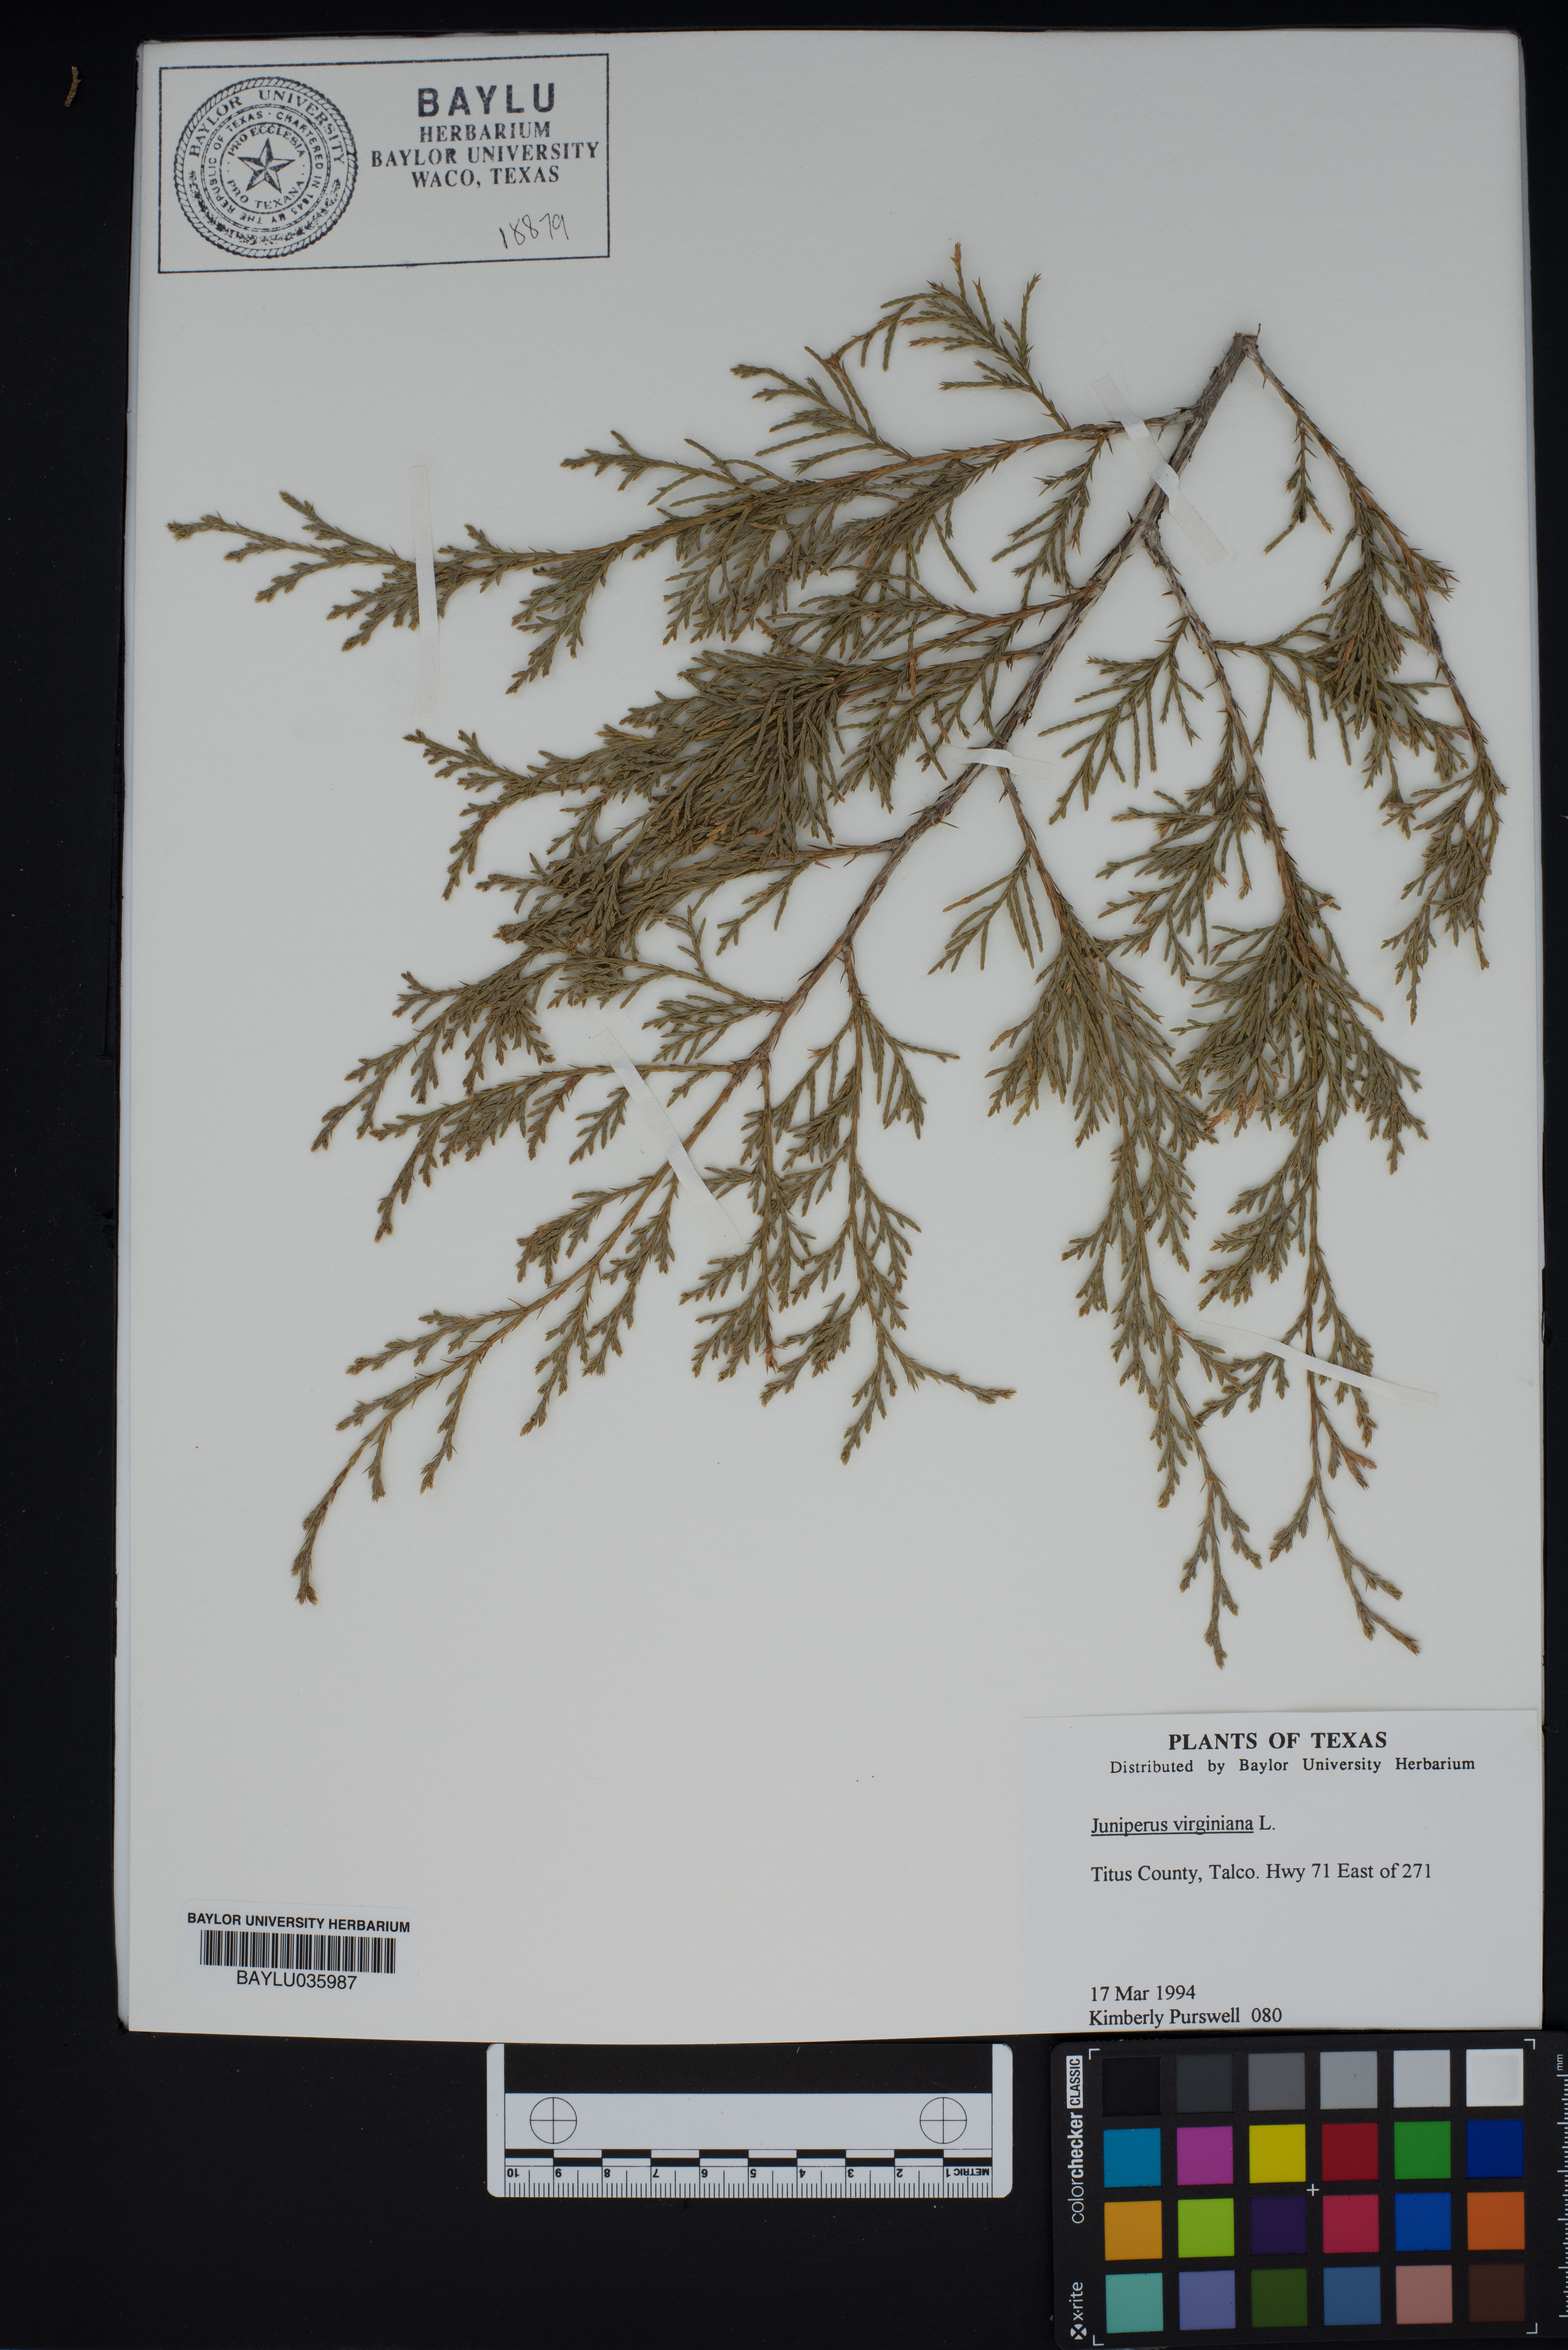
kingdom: Plantae
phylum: Tracheophyta
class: Pinopsida
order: Pinales
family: Cupressaceae
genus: Juniperus
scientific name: Juniperus virginiana
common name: Red juniper
